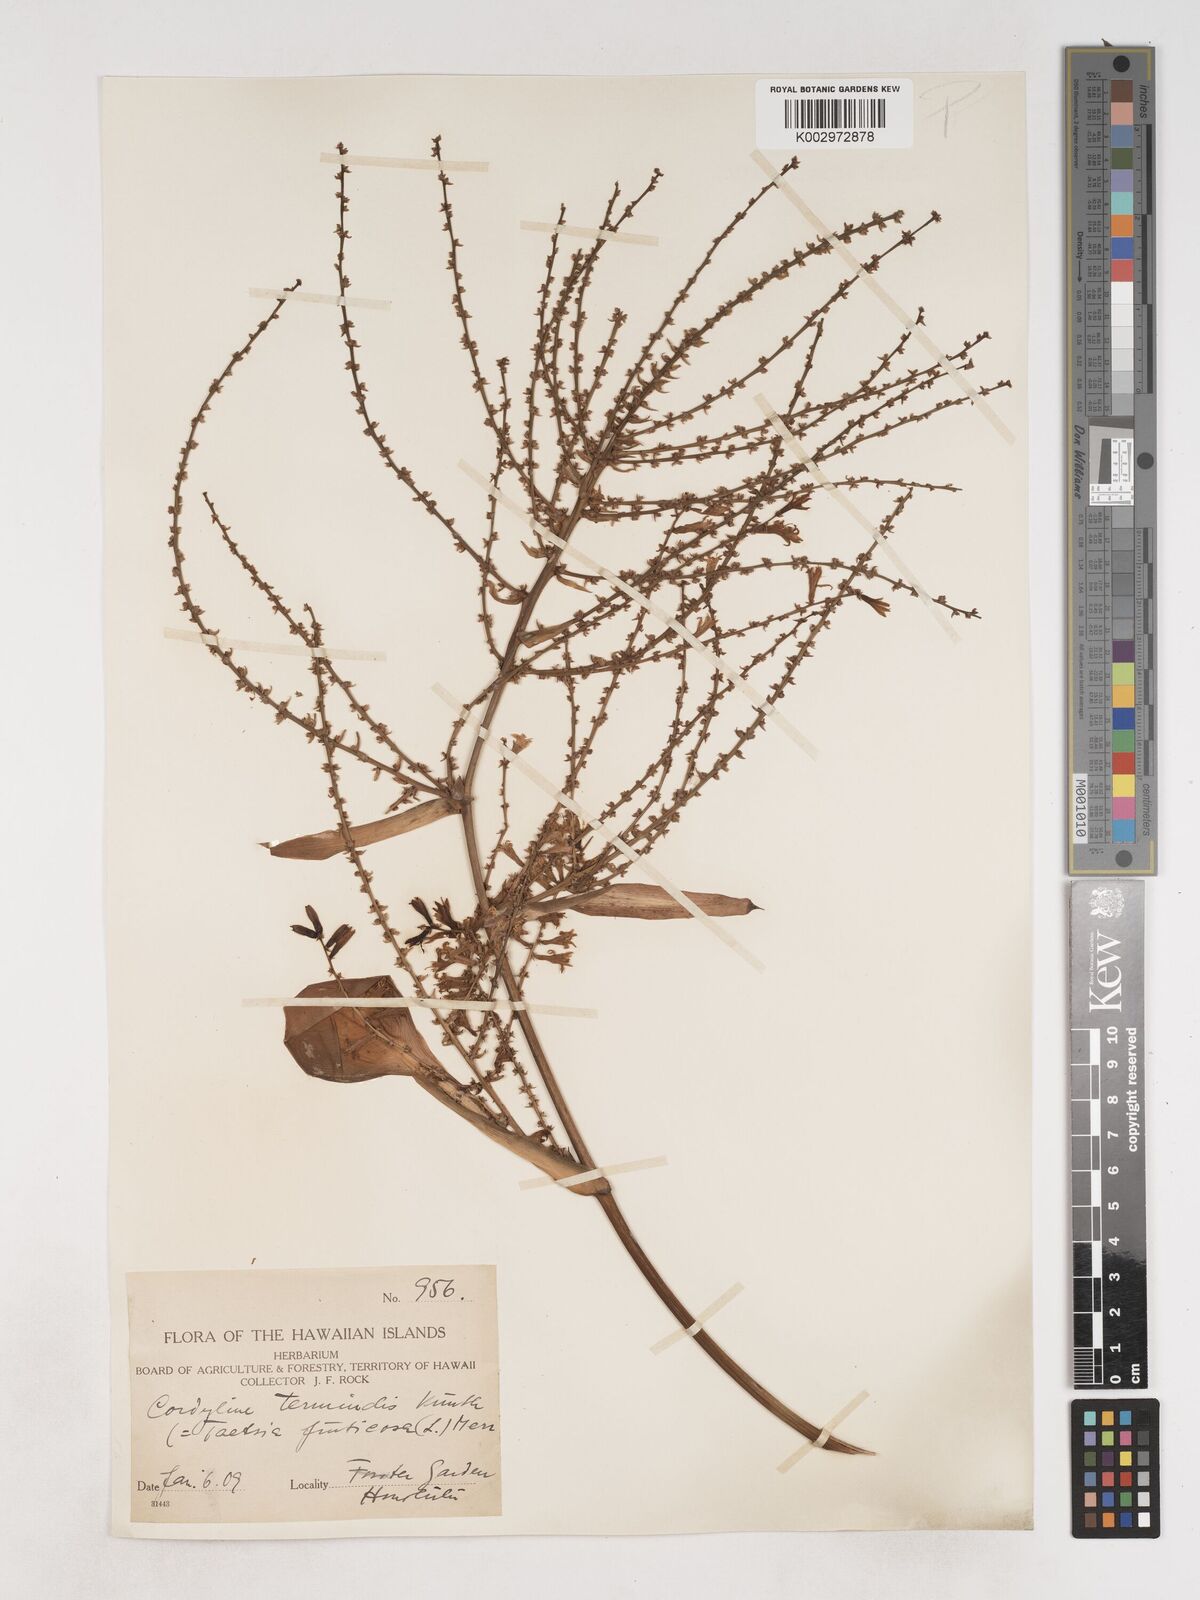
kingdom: Plantae
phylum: Tracheophyta
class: Liliopsida
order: Asparagales
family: Asparagaceae
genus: Cordyline
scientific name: Cordyline fruticosa
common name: Good-luck-plant
